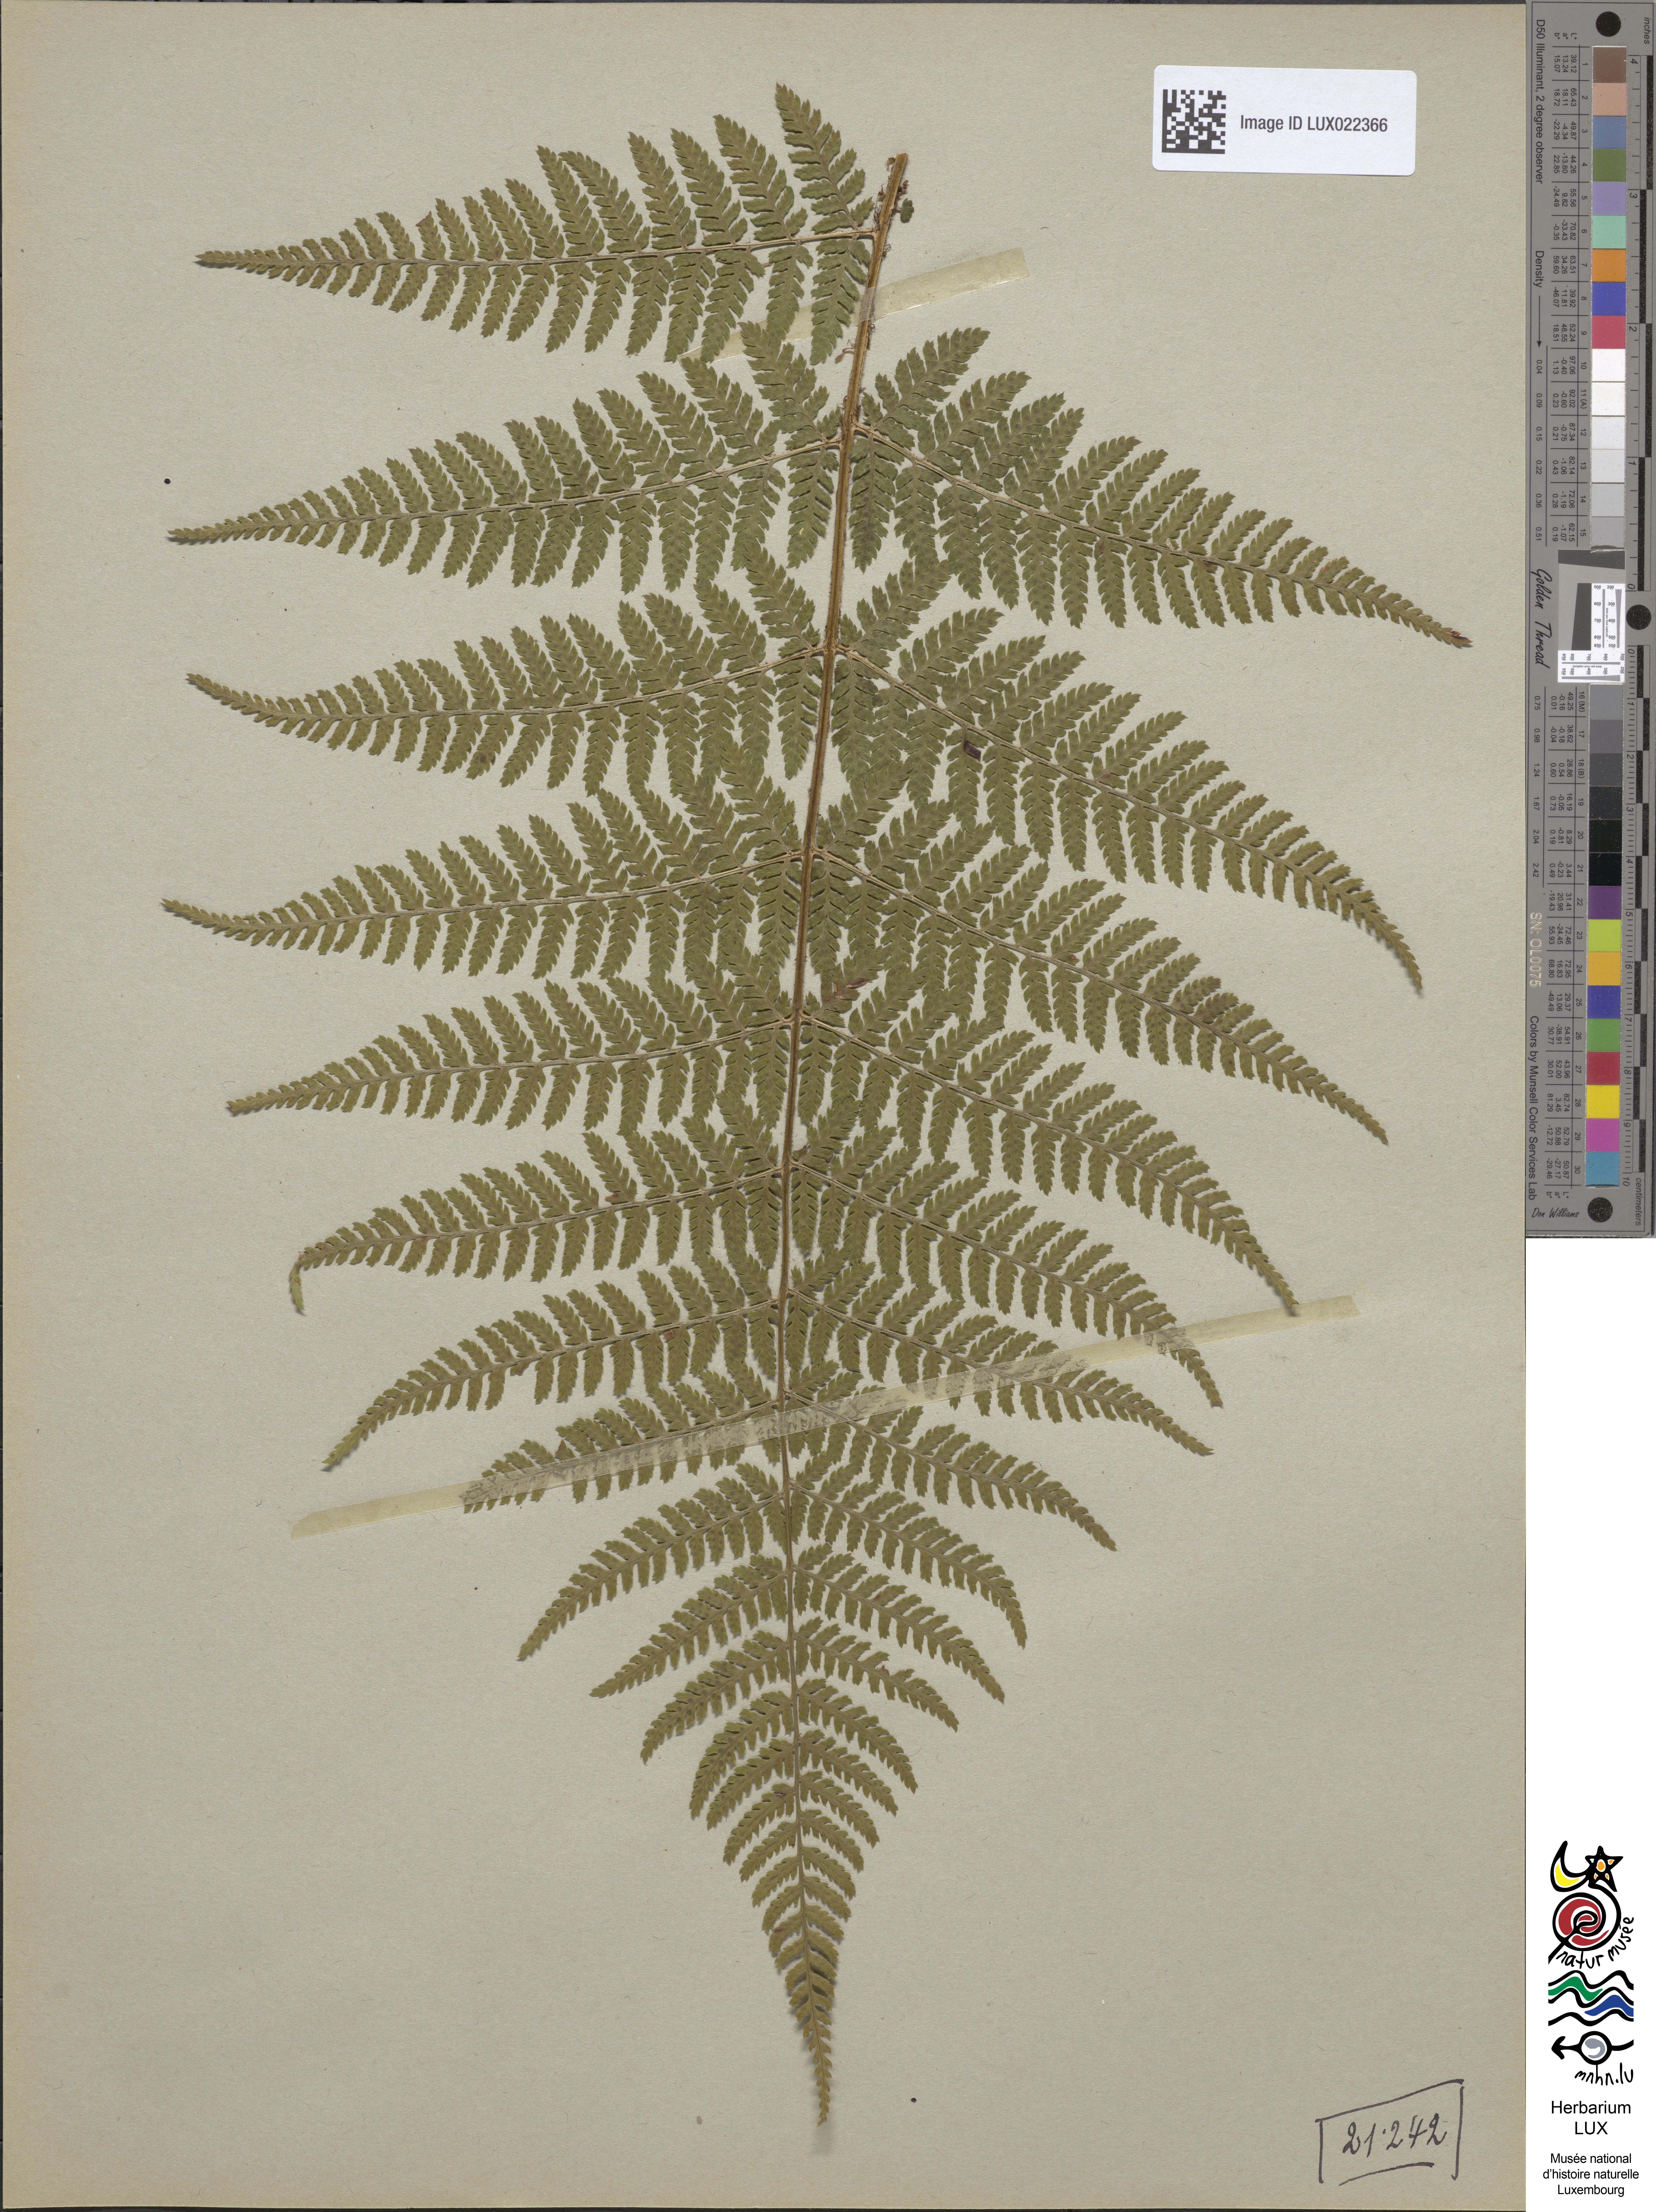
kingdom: Plantae
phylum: Tracheophyta
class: Polypodiopsida
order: Polypodiales
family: Dryopteridaceae
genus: Dryopteris
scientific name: Dryopteris dilatata
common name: Broad buckler-fern
